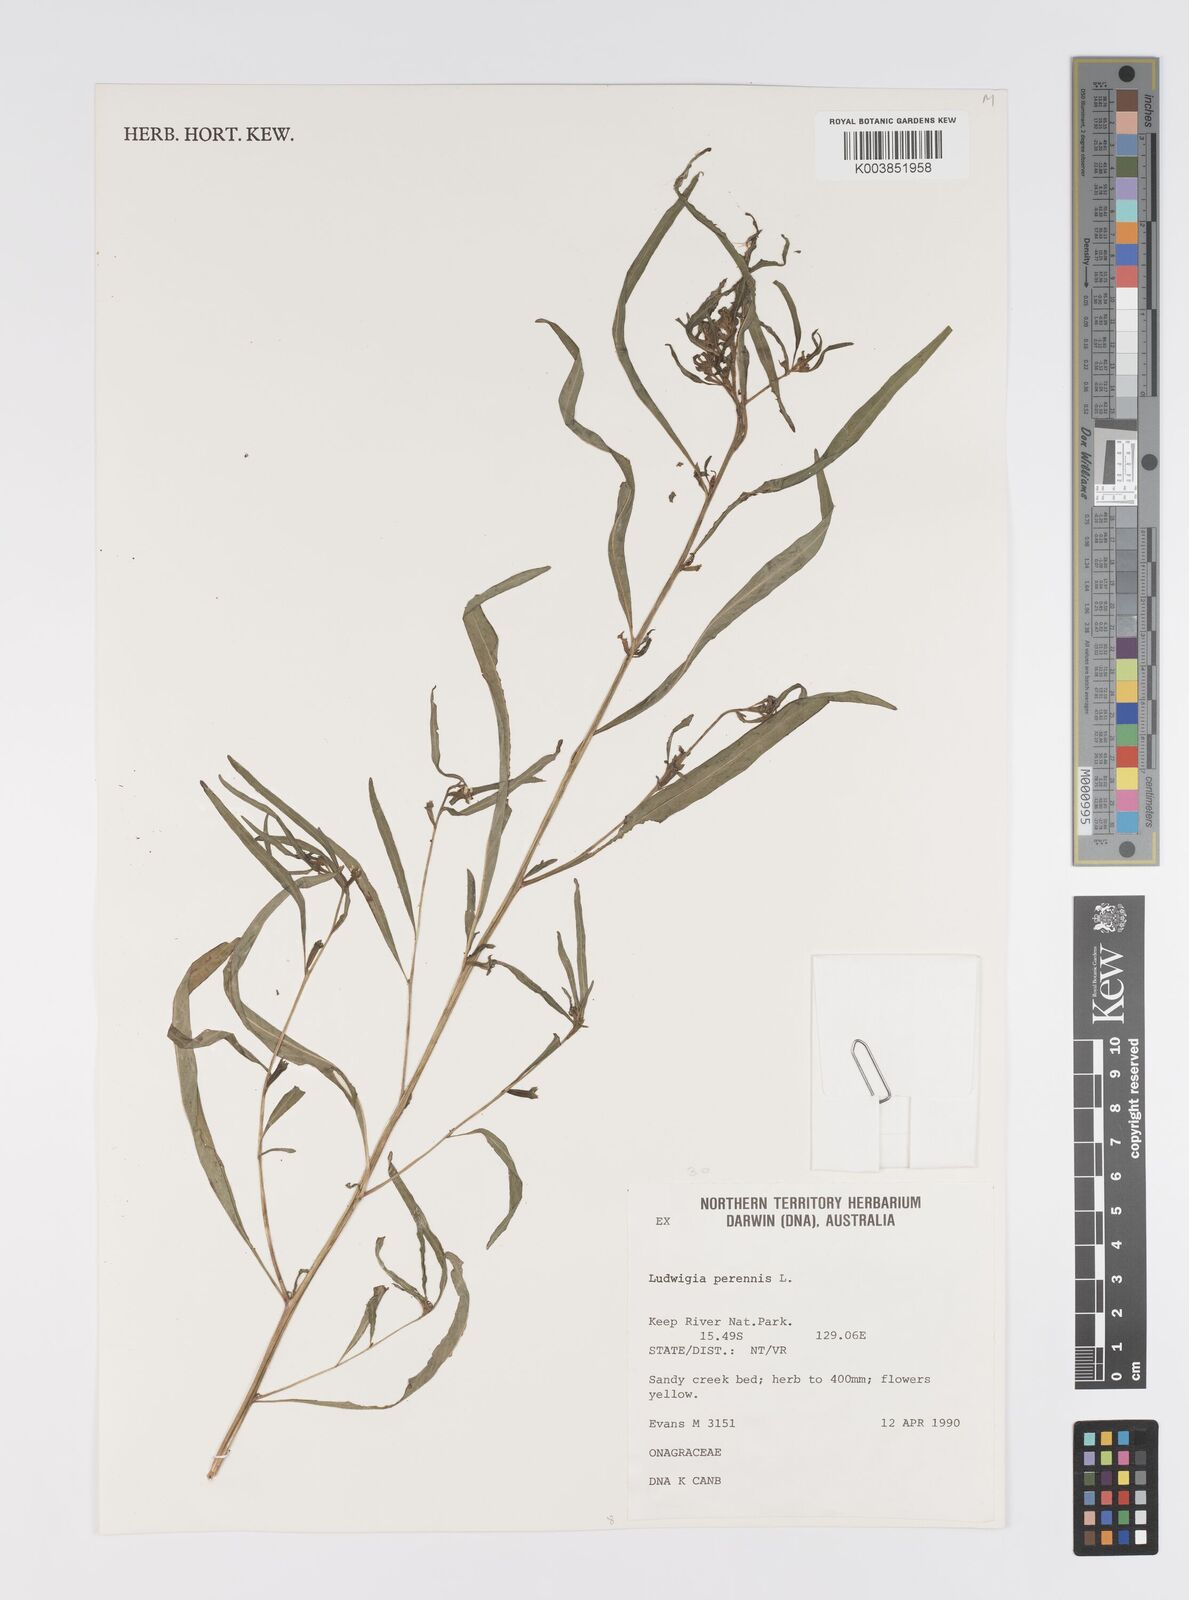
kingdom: Plantae
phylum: Tracheophyta
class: Magnoliopsida
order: Myrtales
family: Onagraceae
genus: Ludwigia
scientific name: Ludwigia perennis
